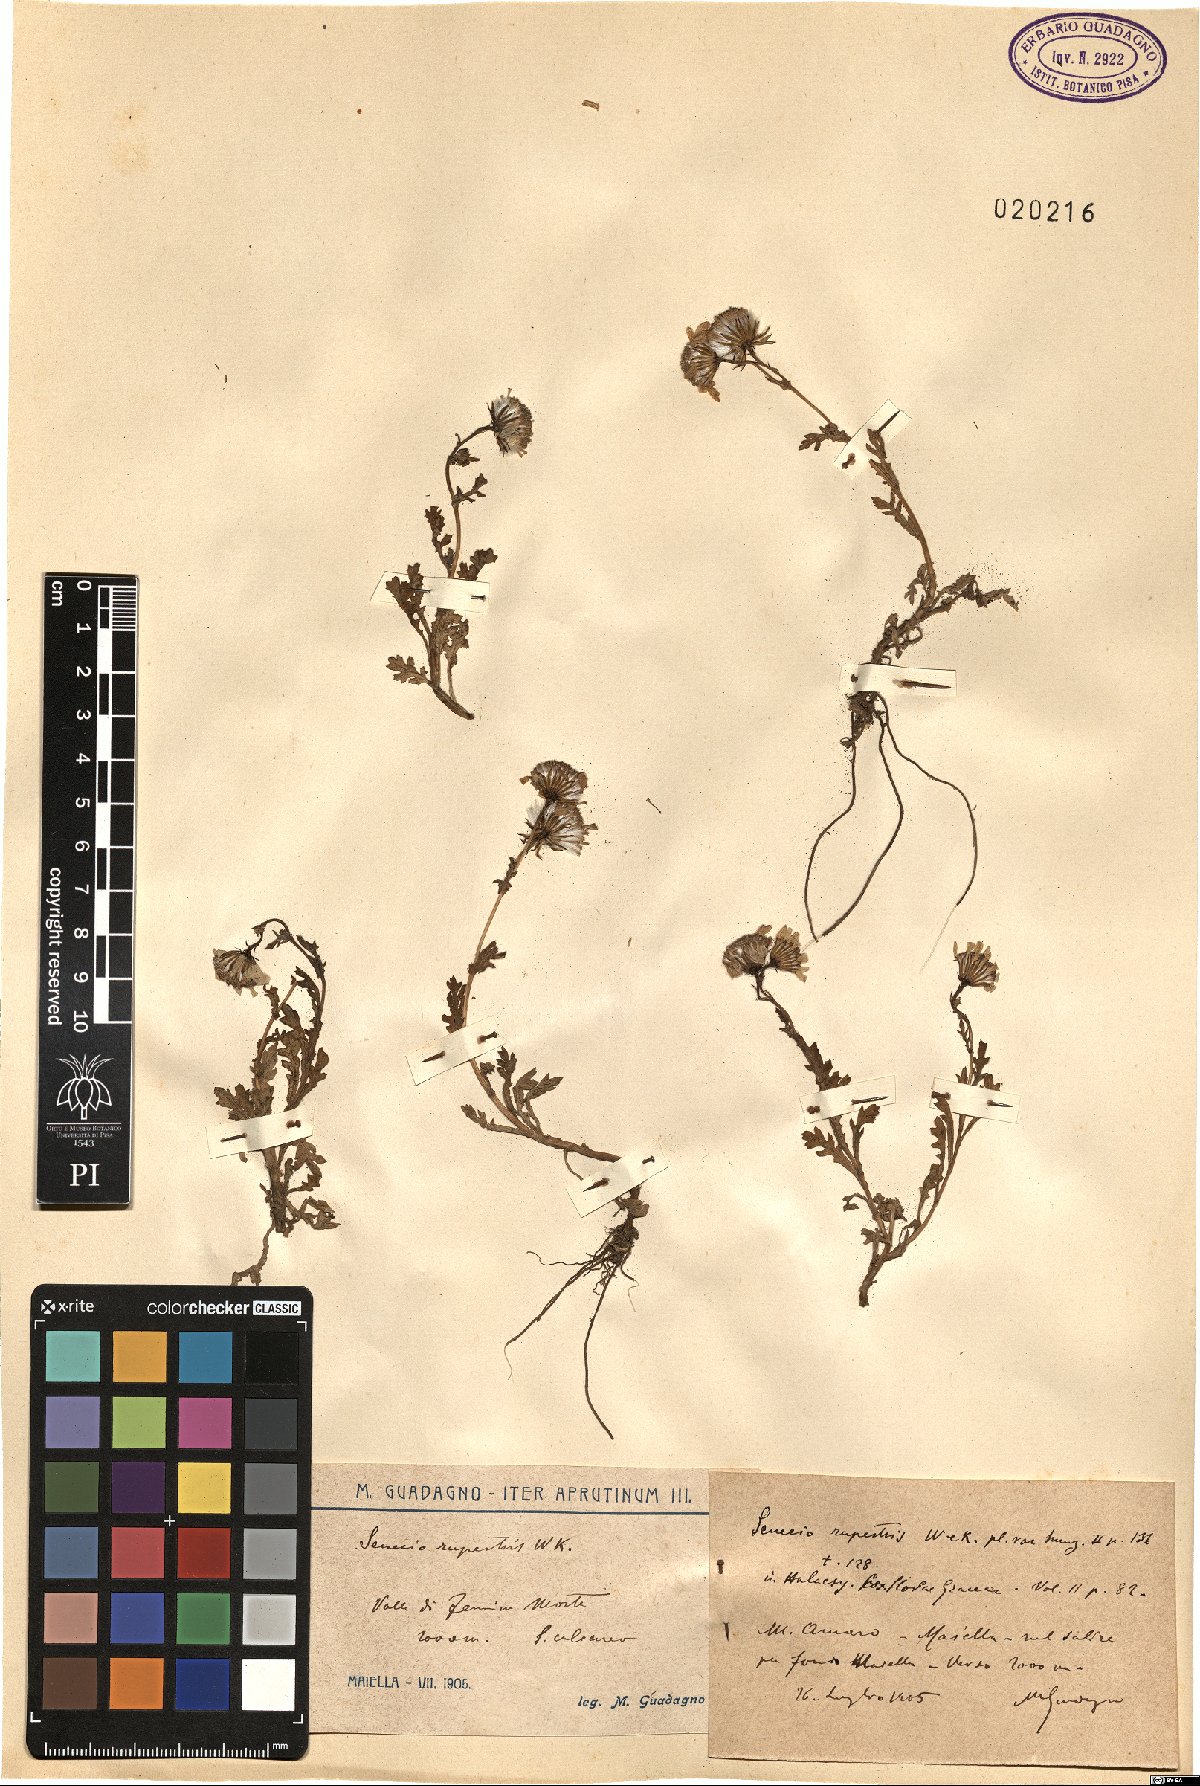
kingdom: Plantae
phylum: Tracheophyta
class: Magnoliopsida
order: Asterales
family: Asteraceae
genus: Senecio
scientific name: Senecio rupestris
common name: Rock ragwort
